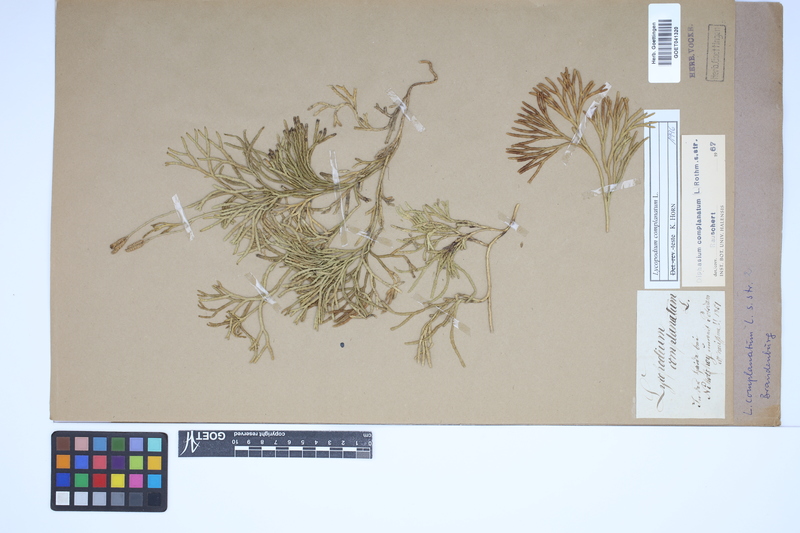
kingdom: Plantae
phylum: Tracheophyta
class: Lycopodiopsida
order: Lycopodiales
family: Lycopodiaceae
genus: Diphasiastrum
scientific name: Diphasiastrum complanatum
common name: Northern running-pine
